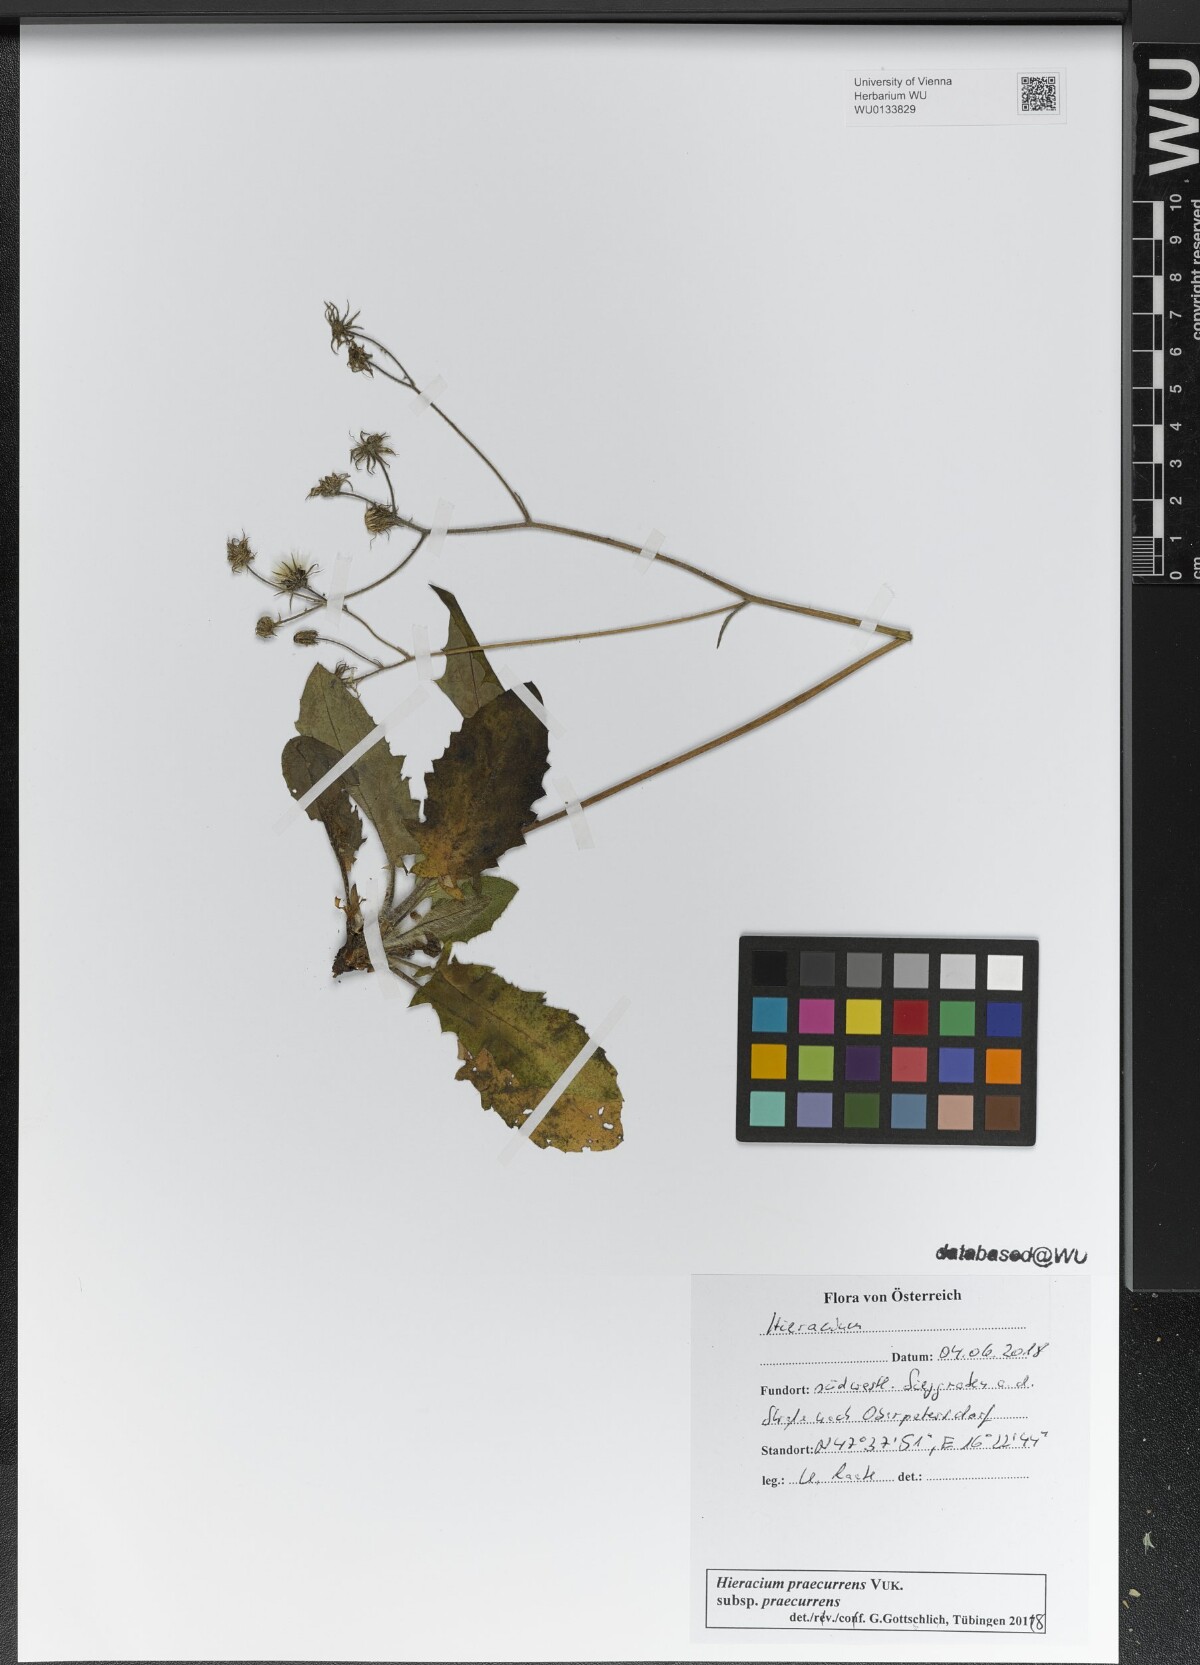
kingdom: Plantae
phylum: Tracheophyta
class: Magnoliopsida
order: Asterales
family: Asteraceae
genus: Hieracium
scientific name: Hieracium rotundatum
